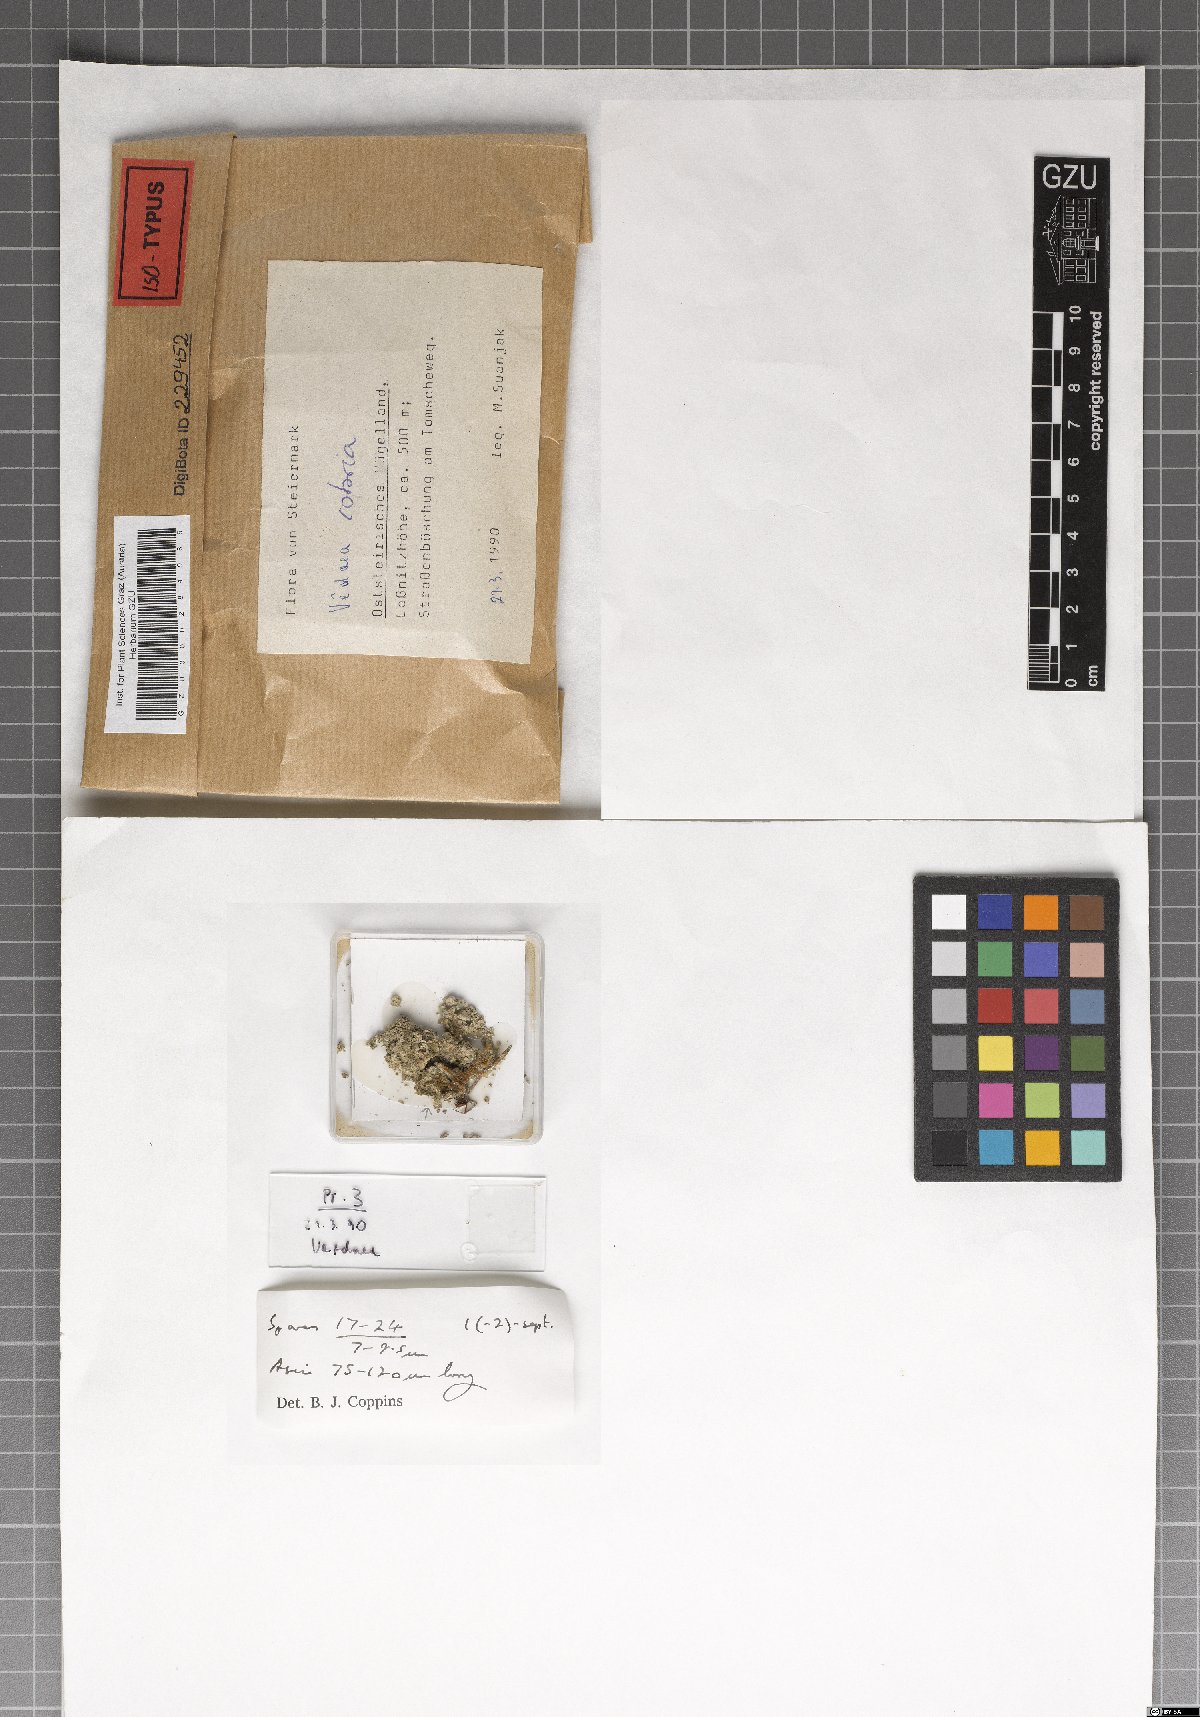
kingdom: Fungi
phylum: Ascomycota
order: Vezdaeales
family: Vezdaeaceae
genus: Vezdaea
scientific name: Vezdaea cobria
